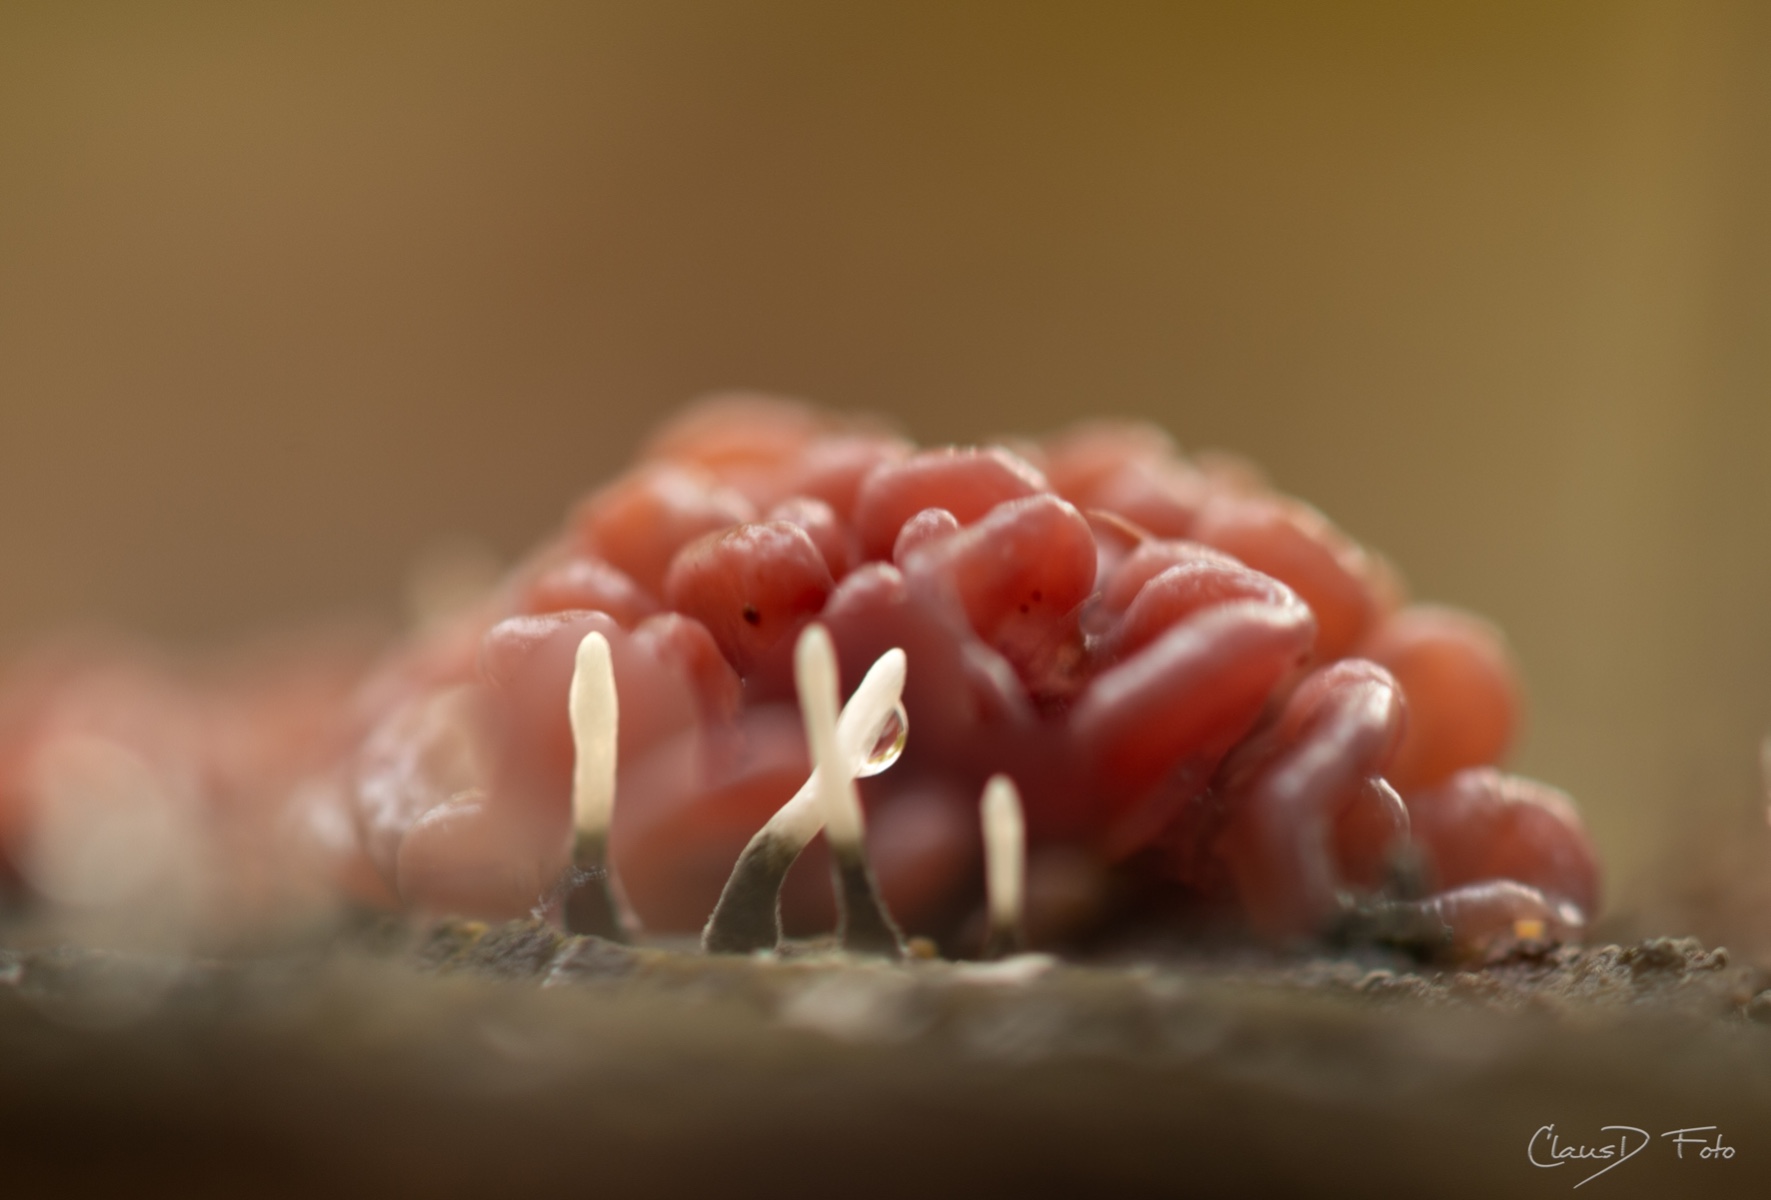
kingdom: Fungi
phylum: Ascomycota
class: Leotiomycetes
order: Helotiales
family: Gelatinodiscaceae
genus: Ascocoryne
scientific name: Ascocoryne sarcoides
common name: rødlilla sejskive
